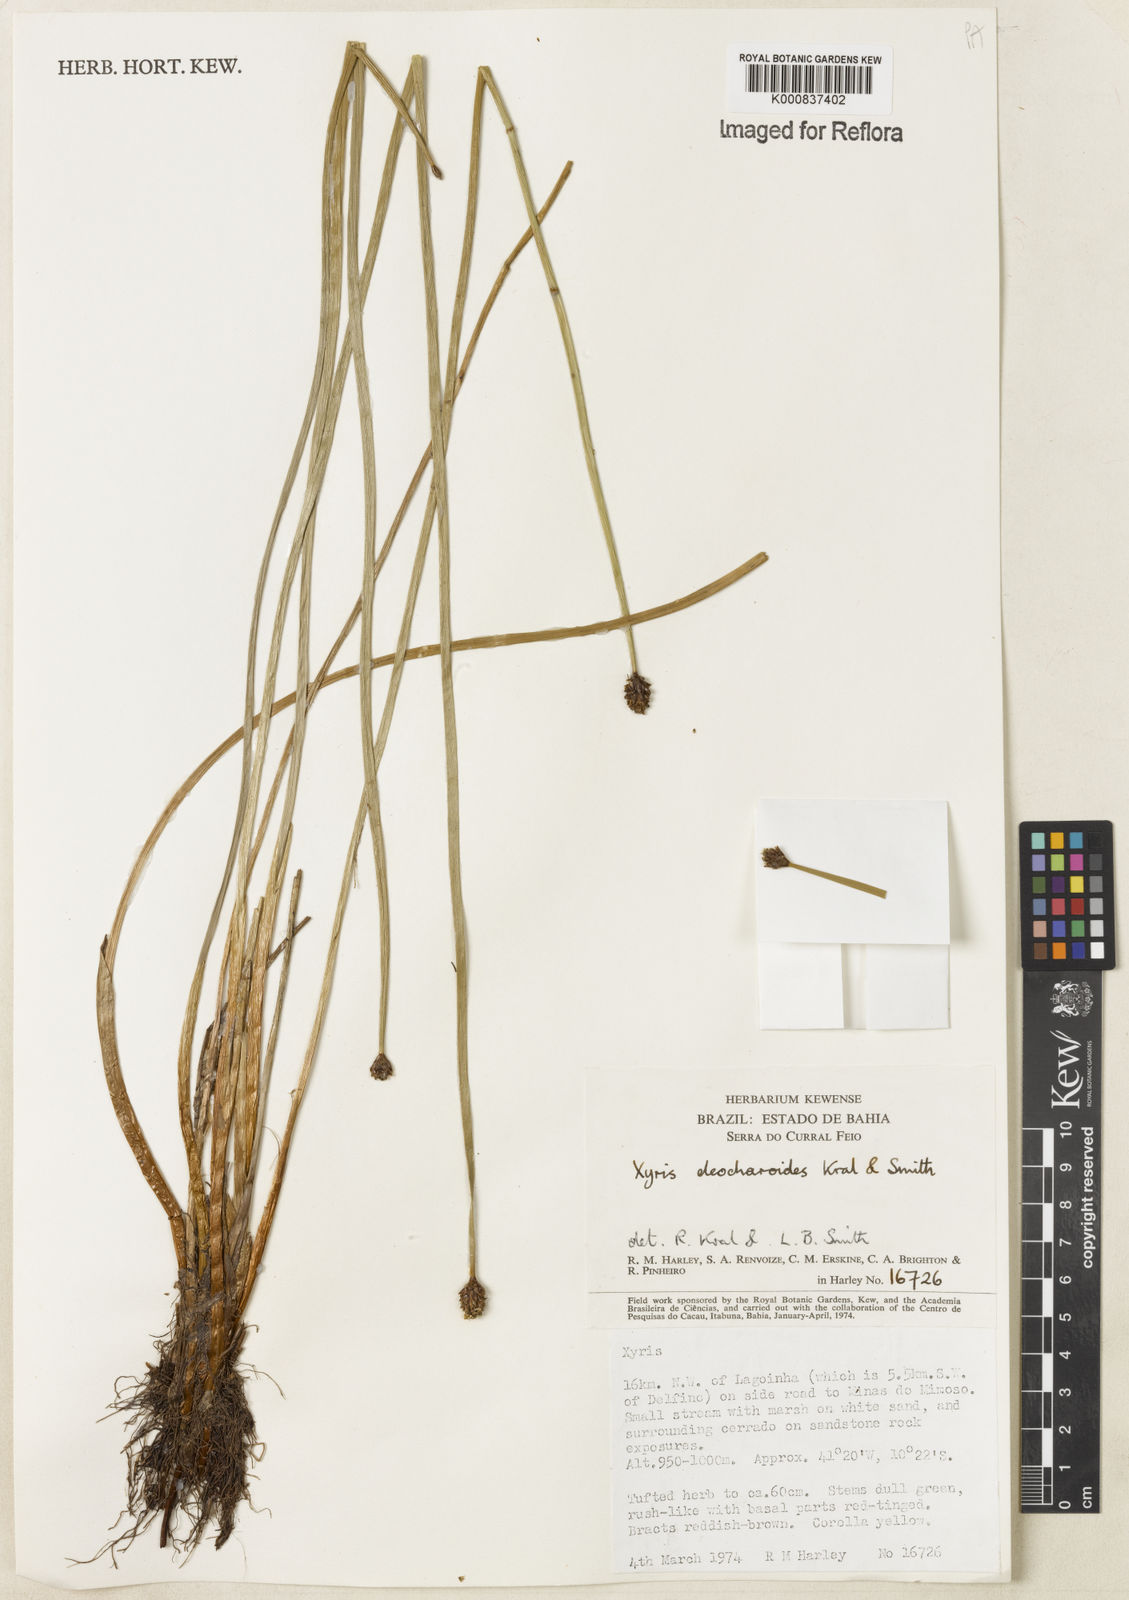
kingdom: Plantae
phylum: Tracheophyta
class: Liliopsida
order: Poales
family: Xyridaceae
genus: Xyris
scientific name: Xyris eleocharoides
